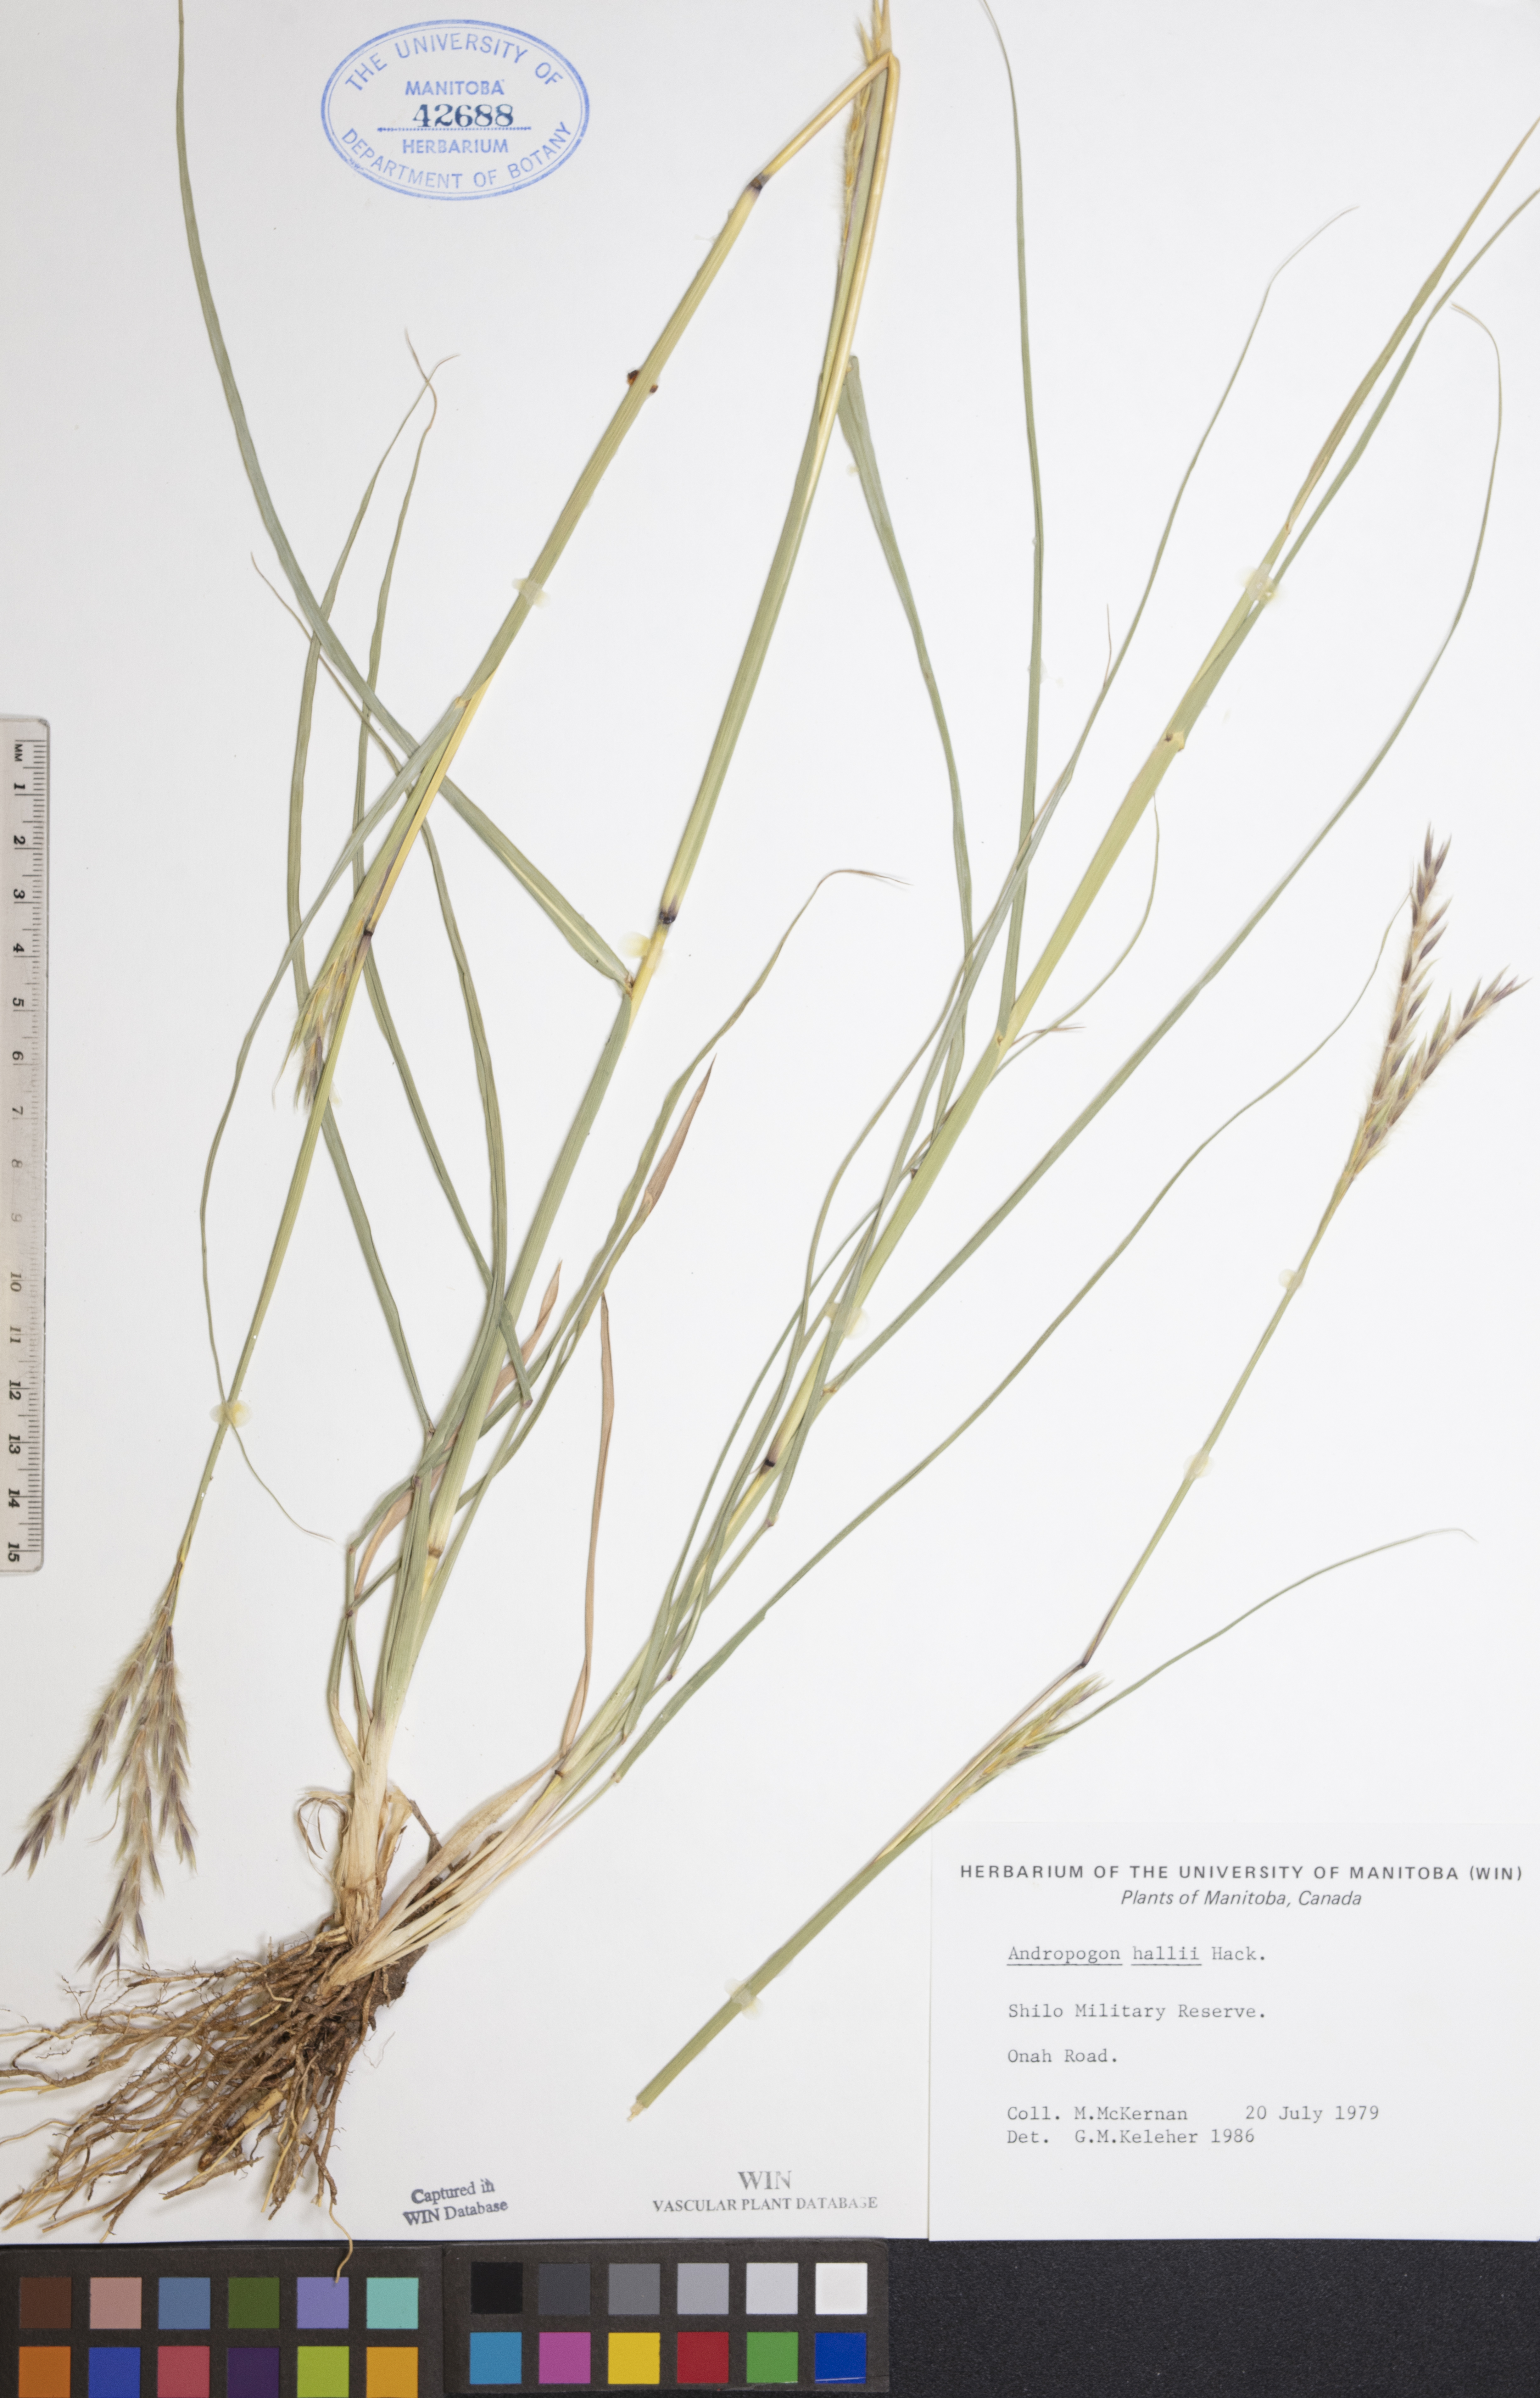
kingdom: Plantae
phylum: Tracheophyta
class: Liliopsida
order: Poales
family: Poaceae
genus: Andropogon
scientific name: Andropogon hallii
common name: Sand bluestem
